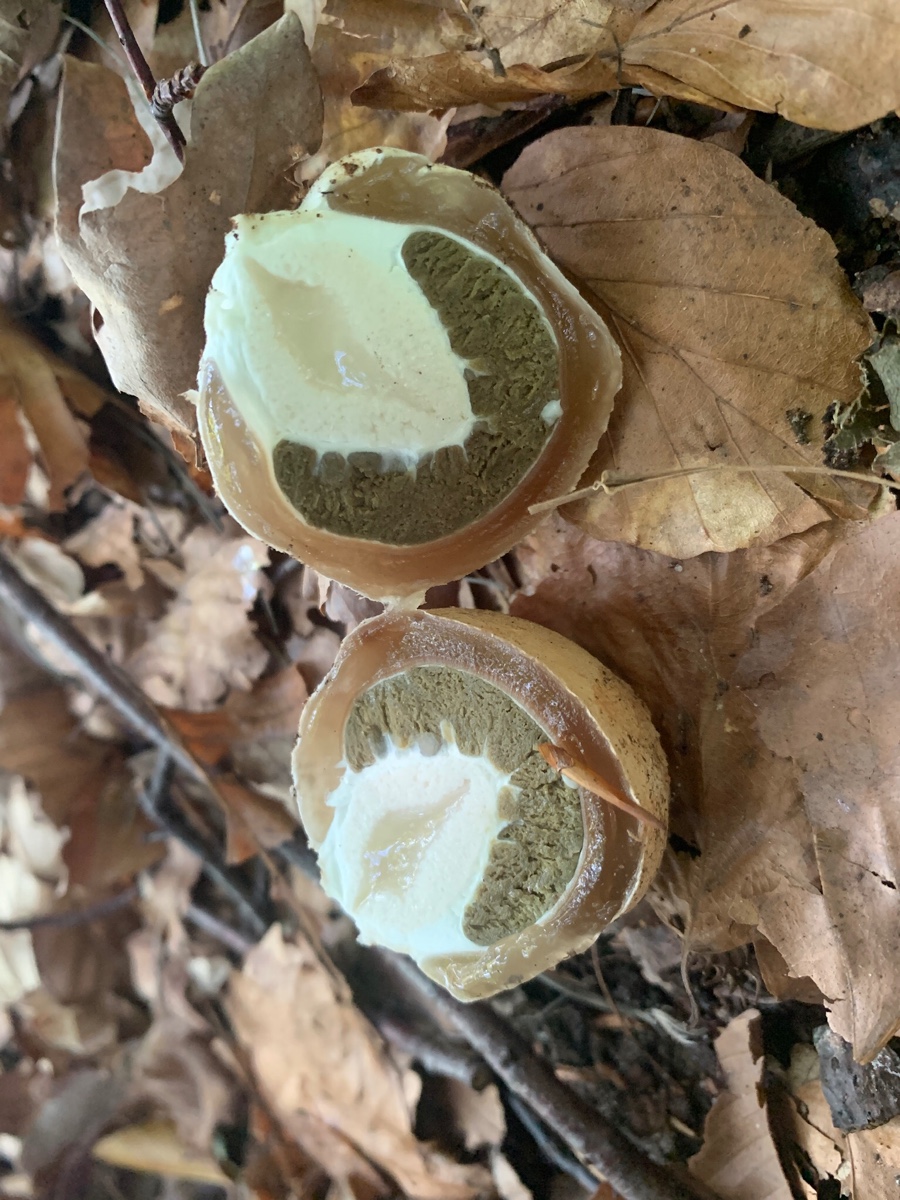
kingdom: Fungi
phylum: Basidiomycota
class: Agaricomycetes
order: Phallales
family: Phallaceae
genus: Phallus
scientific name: Phallus impudicus
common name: almindelig stinksvamp
